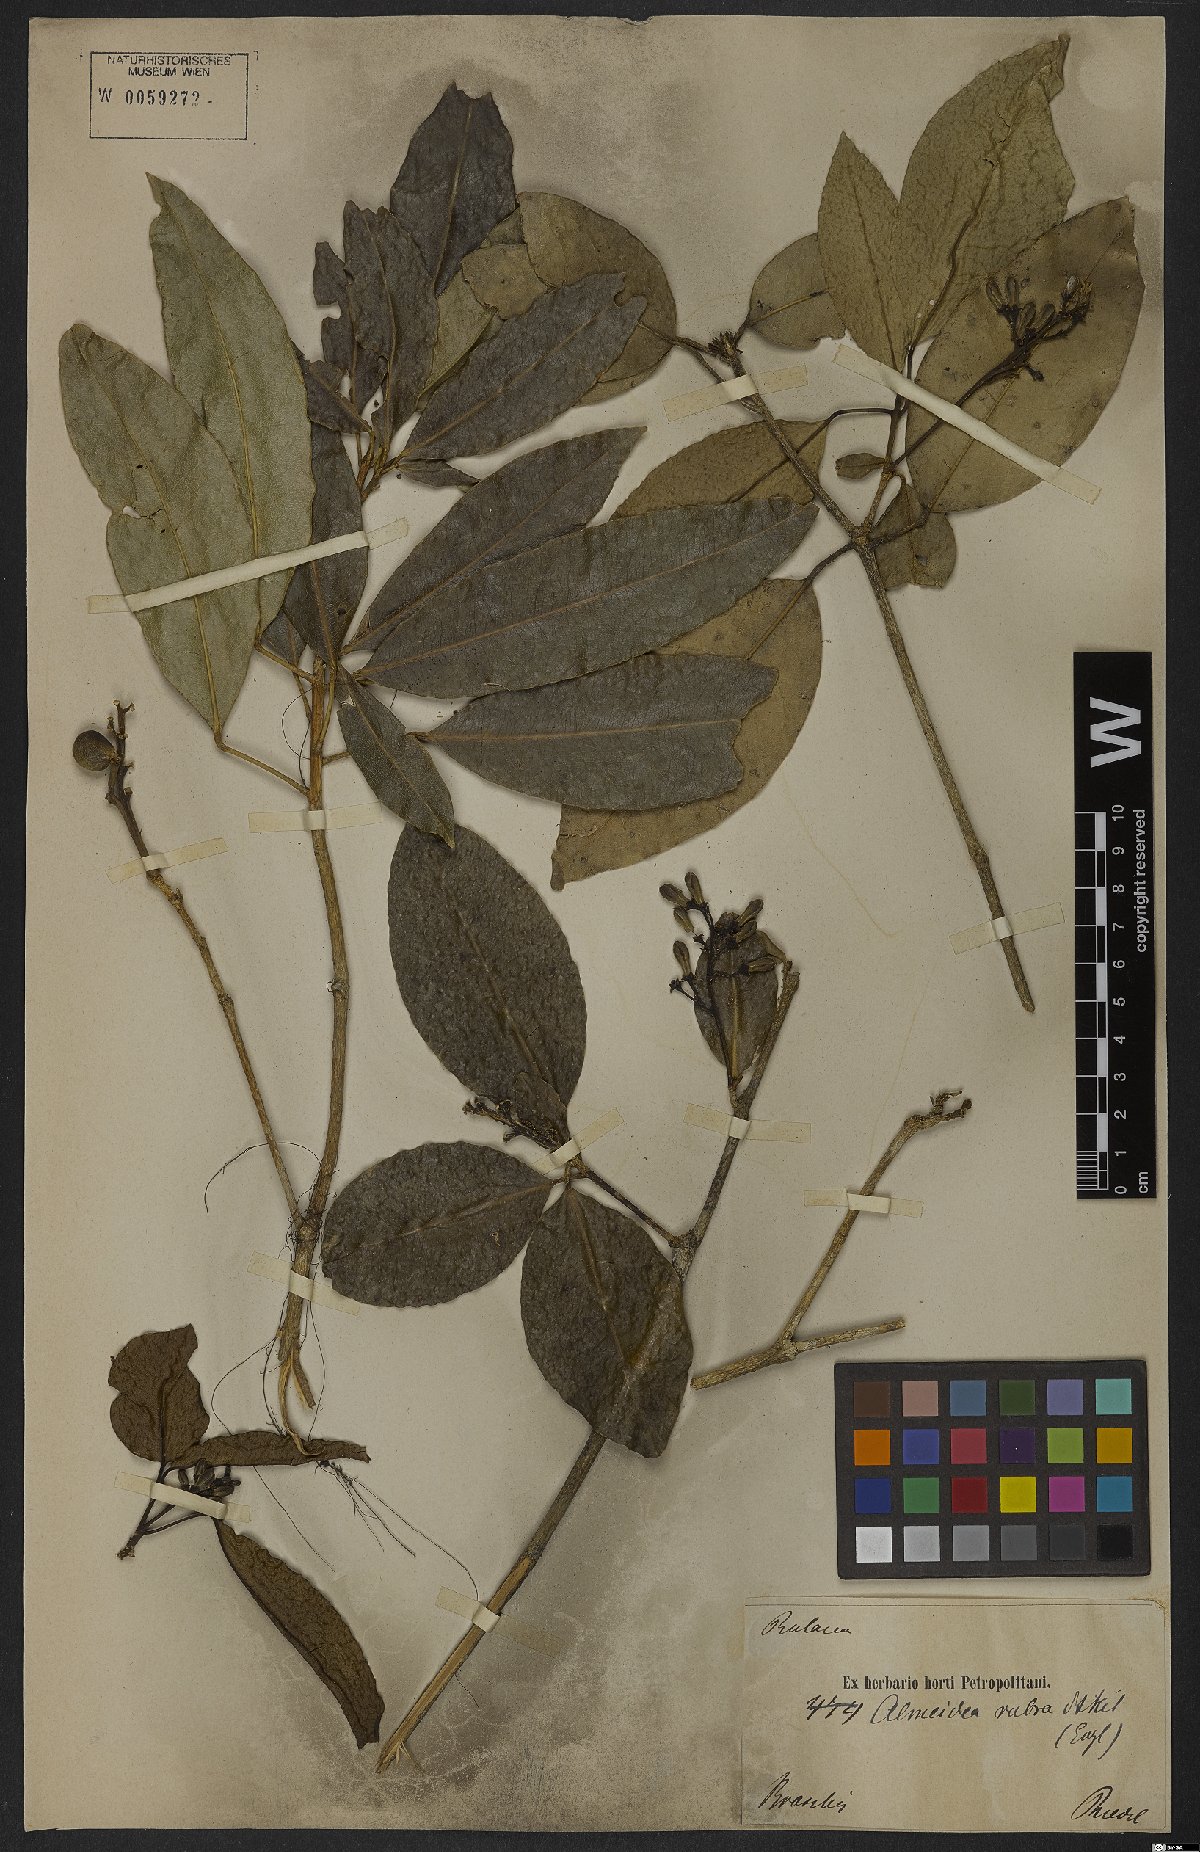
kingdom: Plantae
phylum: Tracheophyta
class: Magnoliopsida
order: Sapindales
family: Rutaceae
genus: Conchocarpus
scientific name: Conchocarpus ruber
